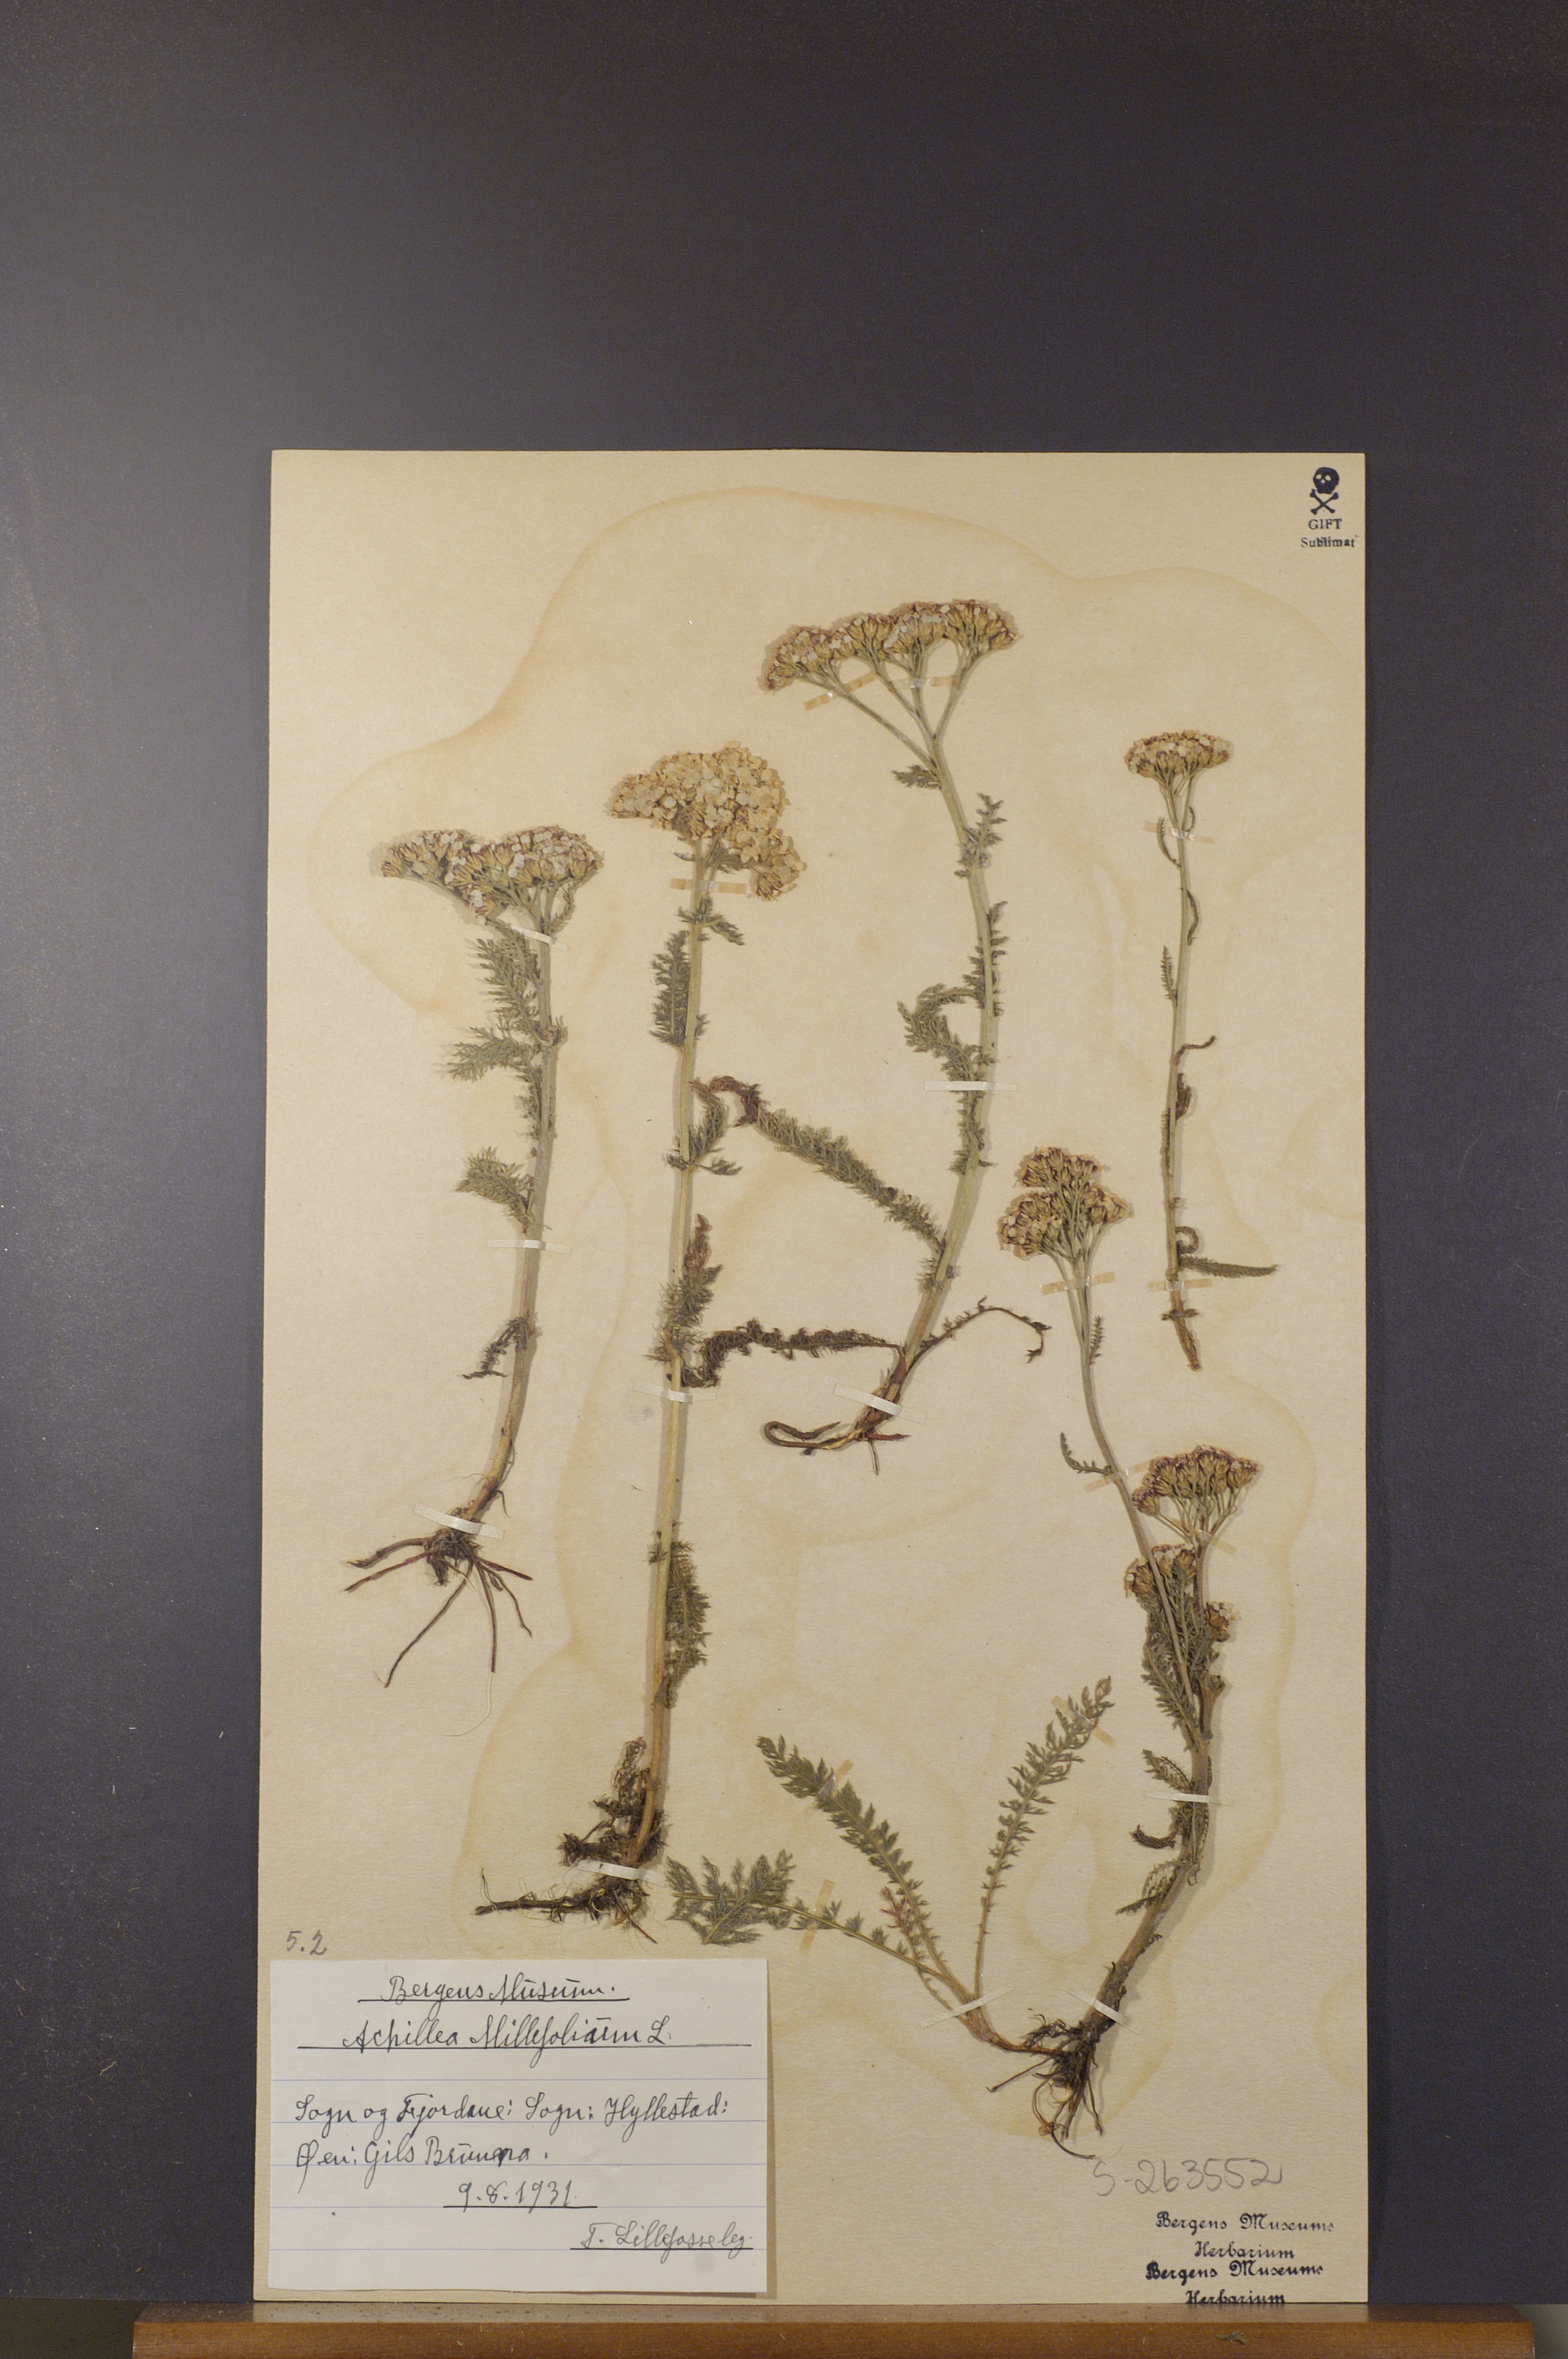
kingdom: Plantae
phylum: Tracheophyta
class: Magnoliopsida
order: Asterales
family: Asteraceae
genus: Achillea
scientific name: Achillea millefolium
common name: Yarrow
